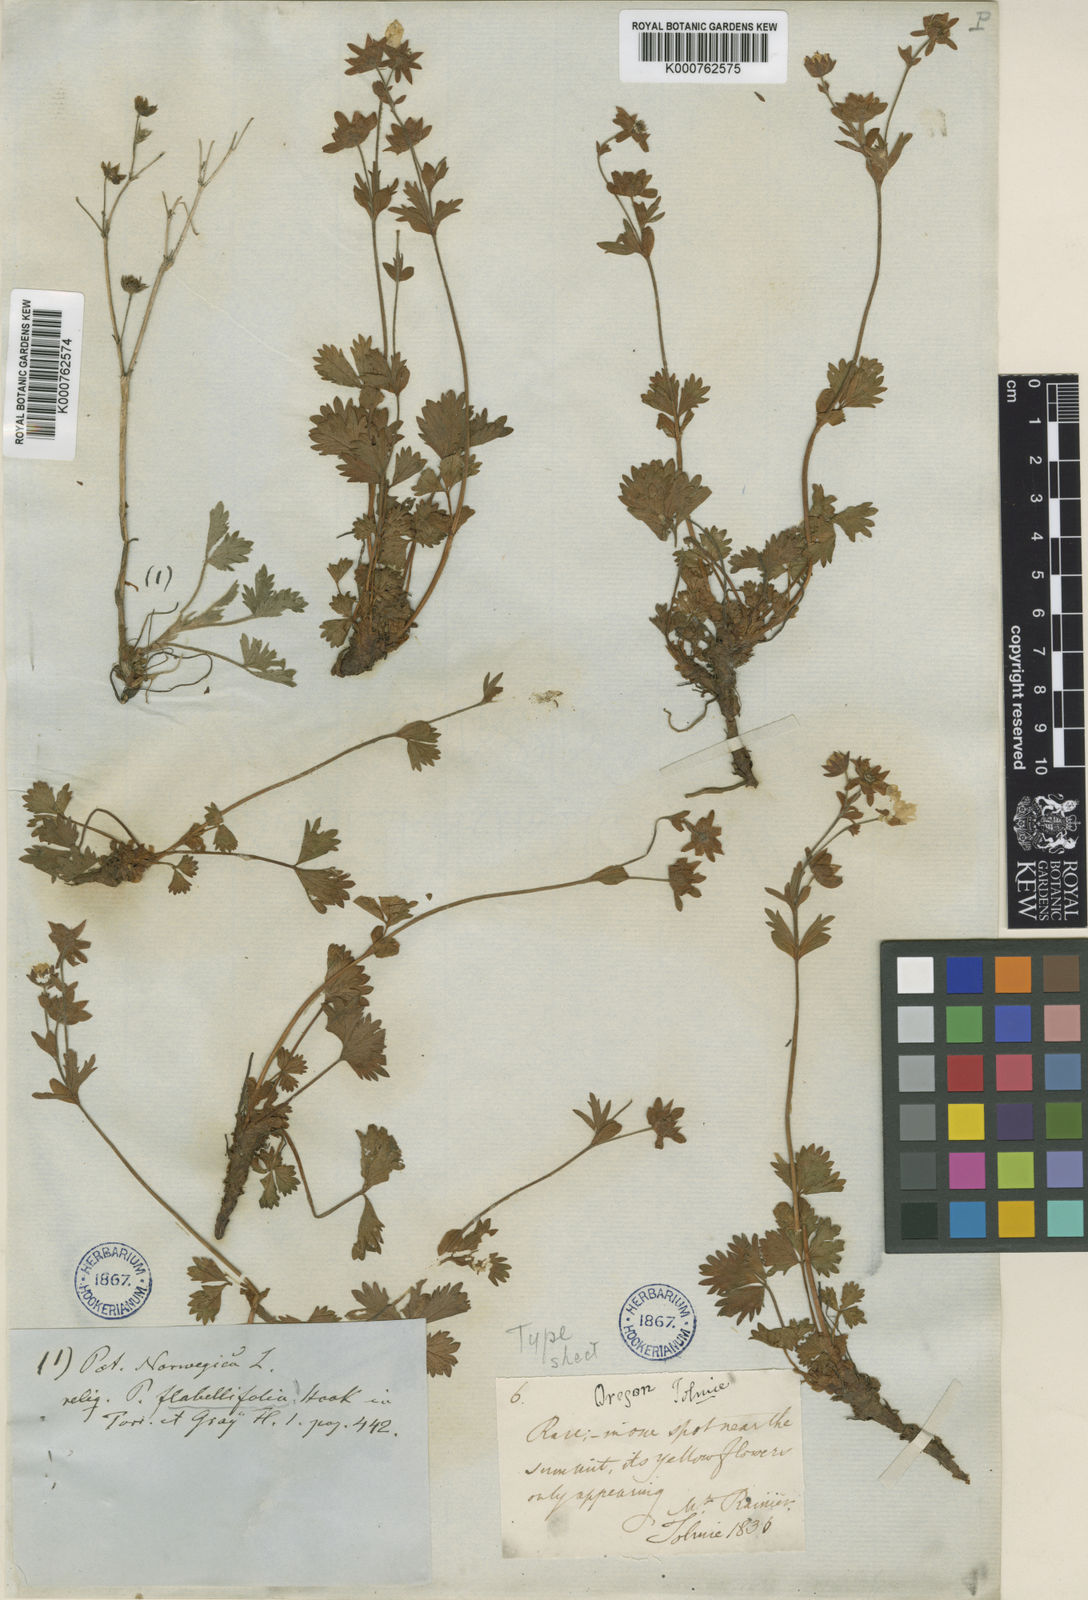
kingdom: Plantae
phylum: Tracheophyta
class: Magnoliopsida
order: Rosales
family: Rosaceae
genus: Potentilla
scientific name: Potentilla flabellifolia
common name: Mount rainier cinquefoil
